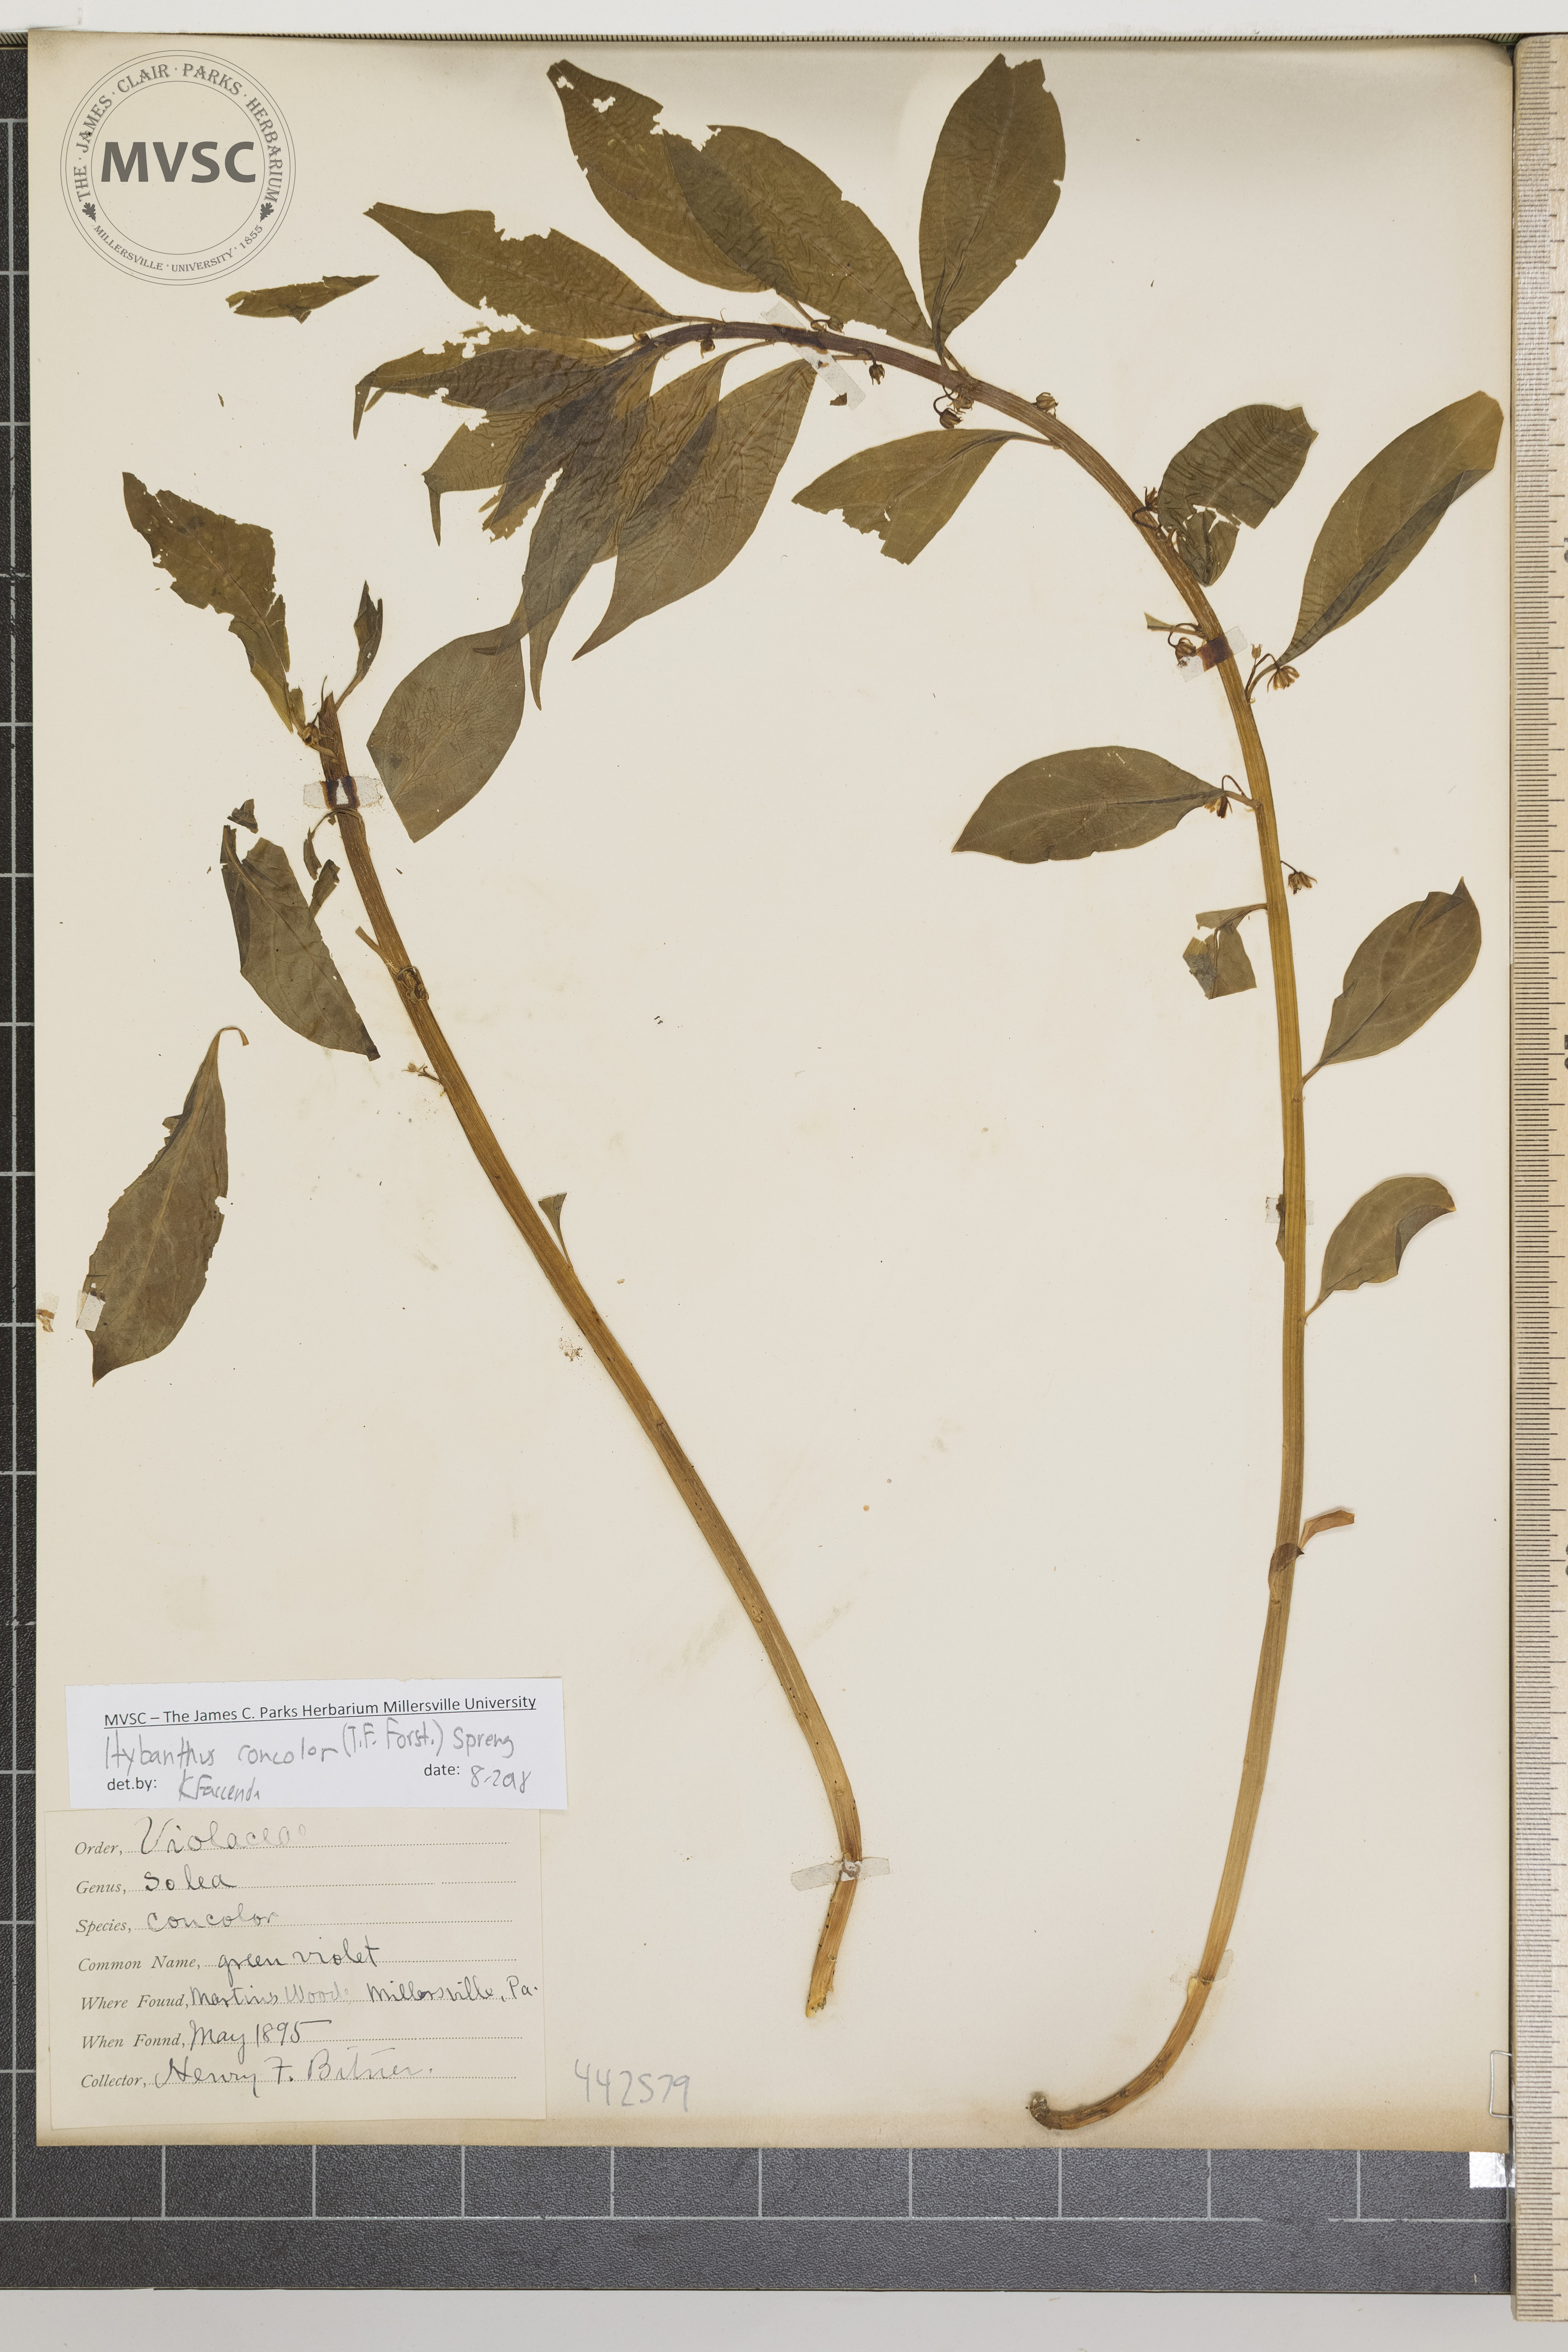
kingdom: Plantae
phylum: Tracheophyta
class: Magnoliopsida
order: Malpighiales
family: Violaceae
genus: Cubelium
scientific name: Cubelium concolor
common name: Green violet
